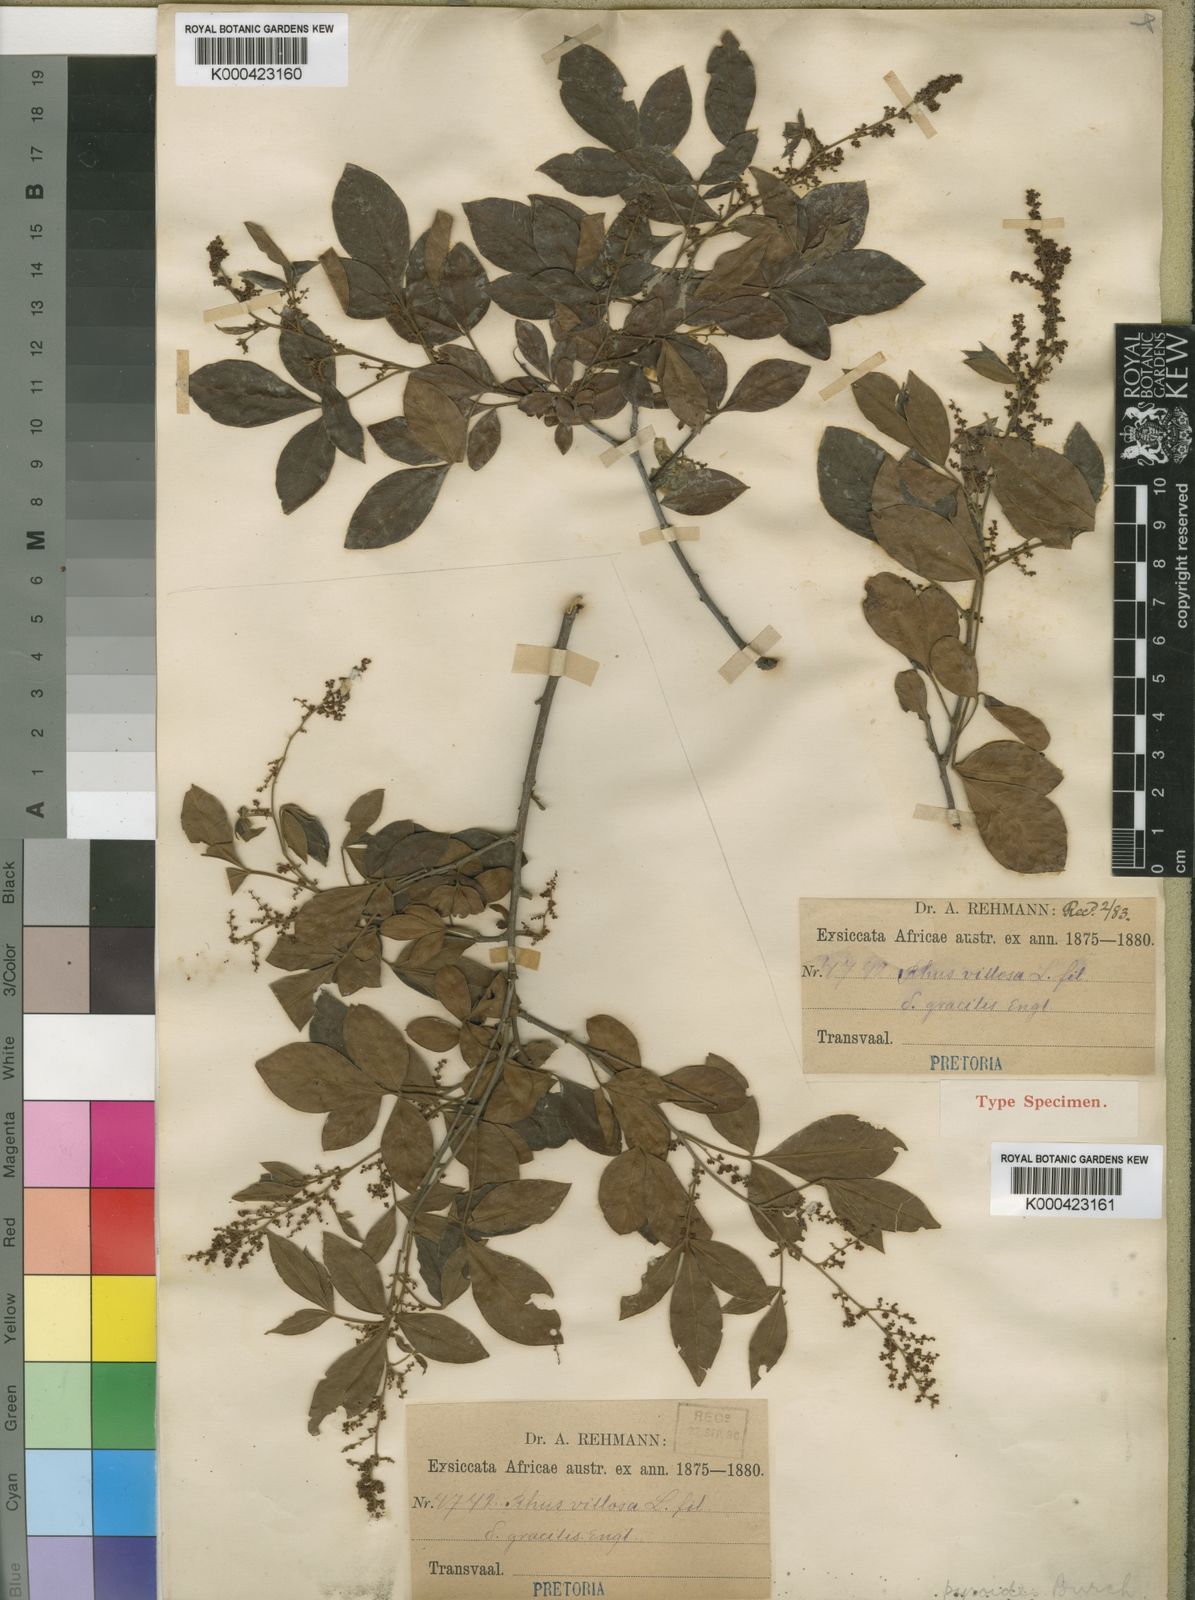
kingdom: Plantae
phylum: Tracheophyta
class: Magnoliopsida
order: Sapindales
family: Anacardiaceae
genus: Searsia
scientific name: Searsia pyroides
